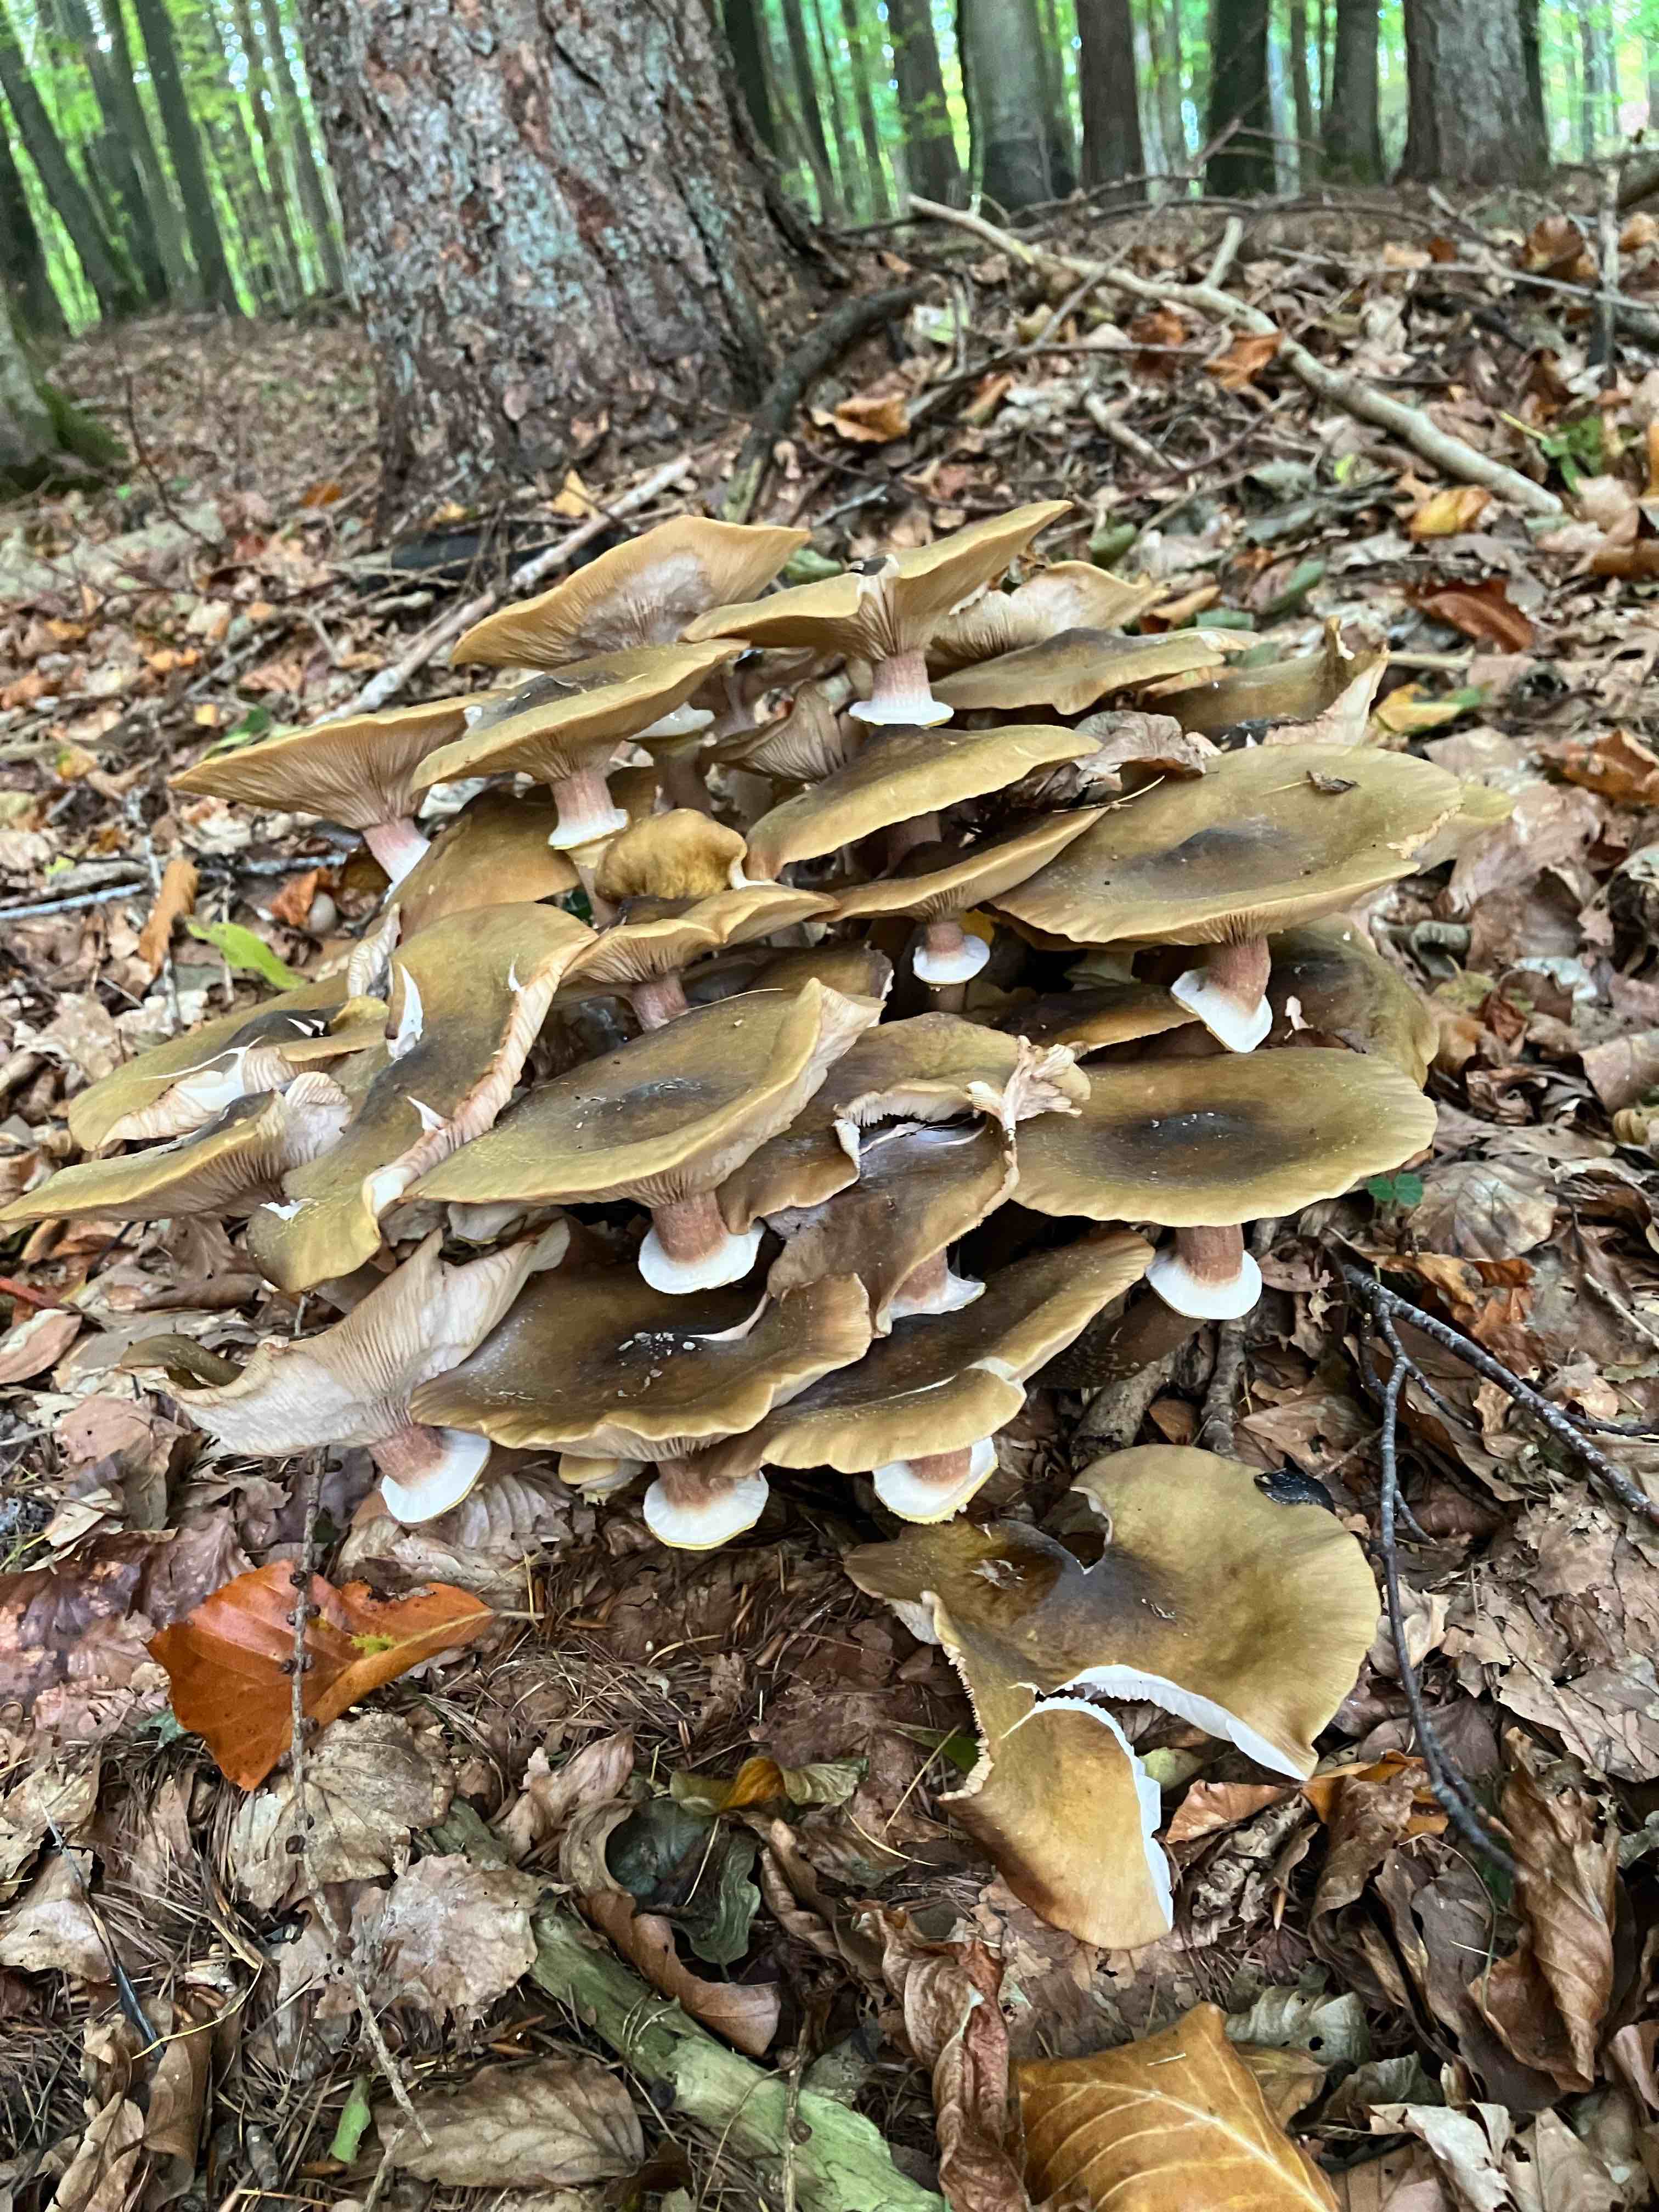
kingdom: Fungi
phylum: Basidiomycota
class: Agaricomycetes
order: Agaricales
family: Physalacriaceae
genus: Armillaria
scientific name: Armillaria mellea
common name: ægte honningsvamp
